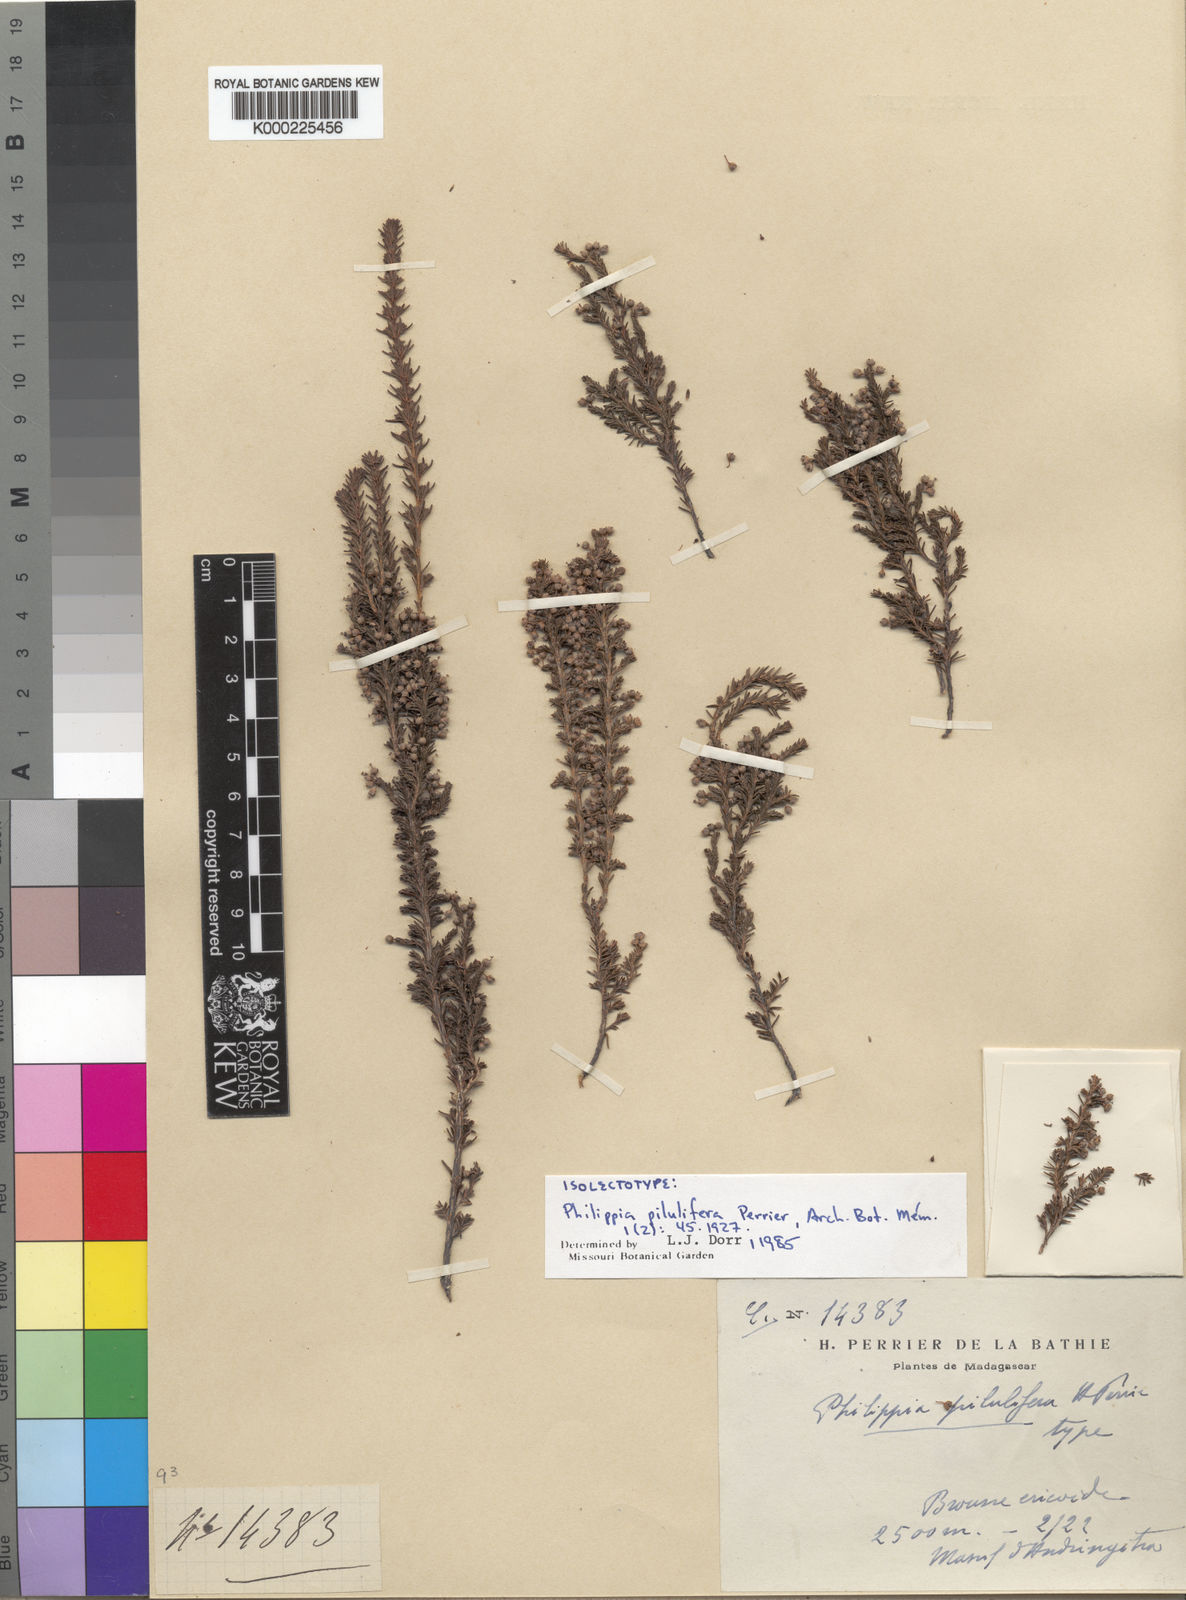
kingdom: Plantae
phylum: Tracheophyta
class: Magnoliopsida
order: Ericales
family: Ericaceae
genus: Erica
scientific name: Erica wangfatiana
